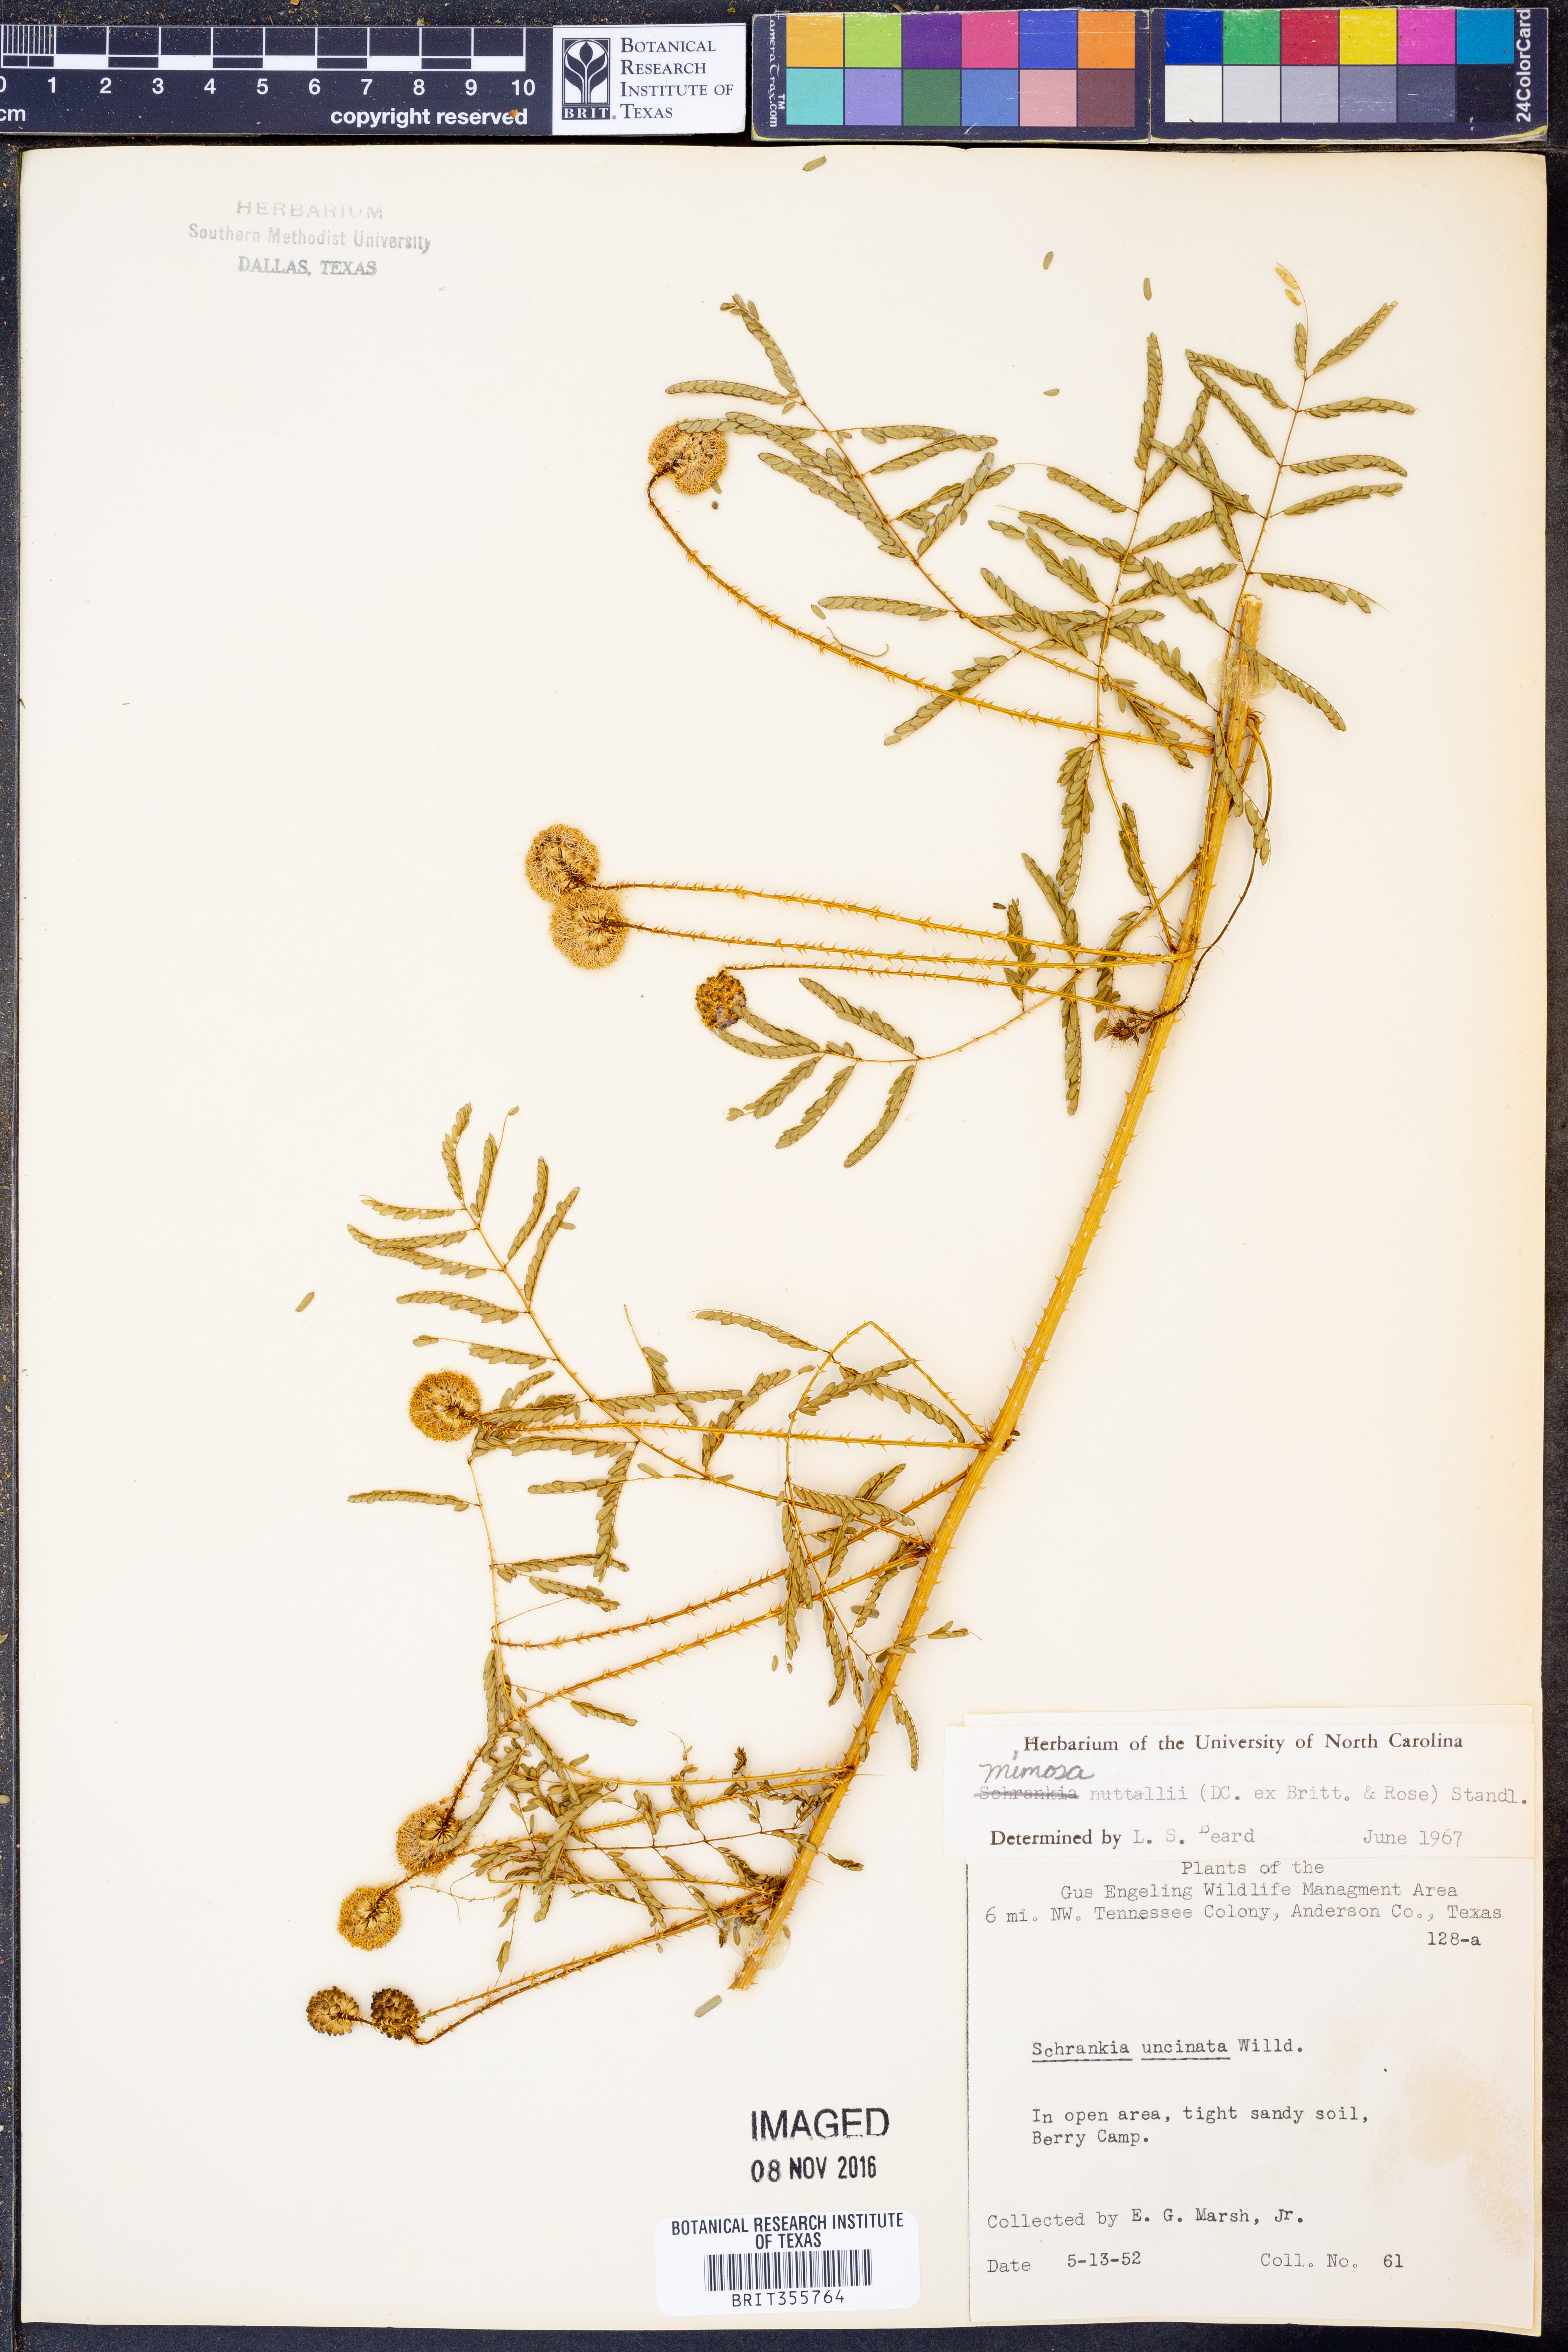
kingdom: Plantae
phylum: Tracheophyta
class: Magnoliopsida
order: Fabales
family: Fabaceae
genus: Mimosa
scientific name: Mimosa quadrivalvis
